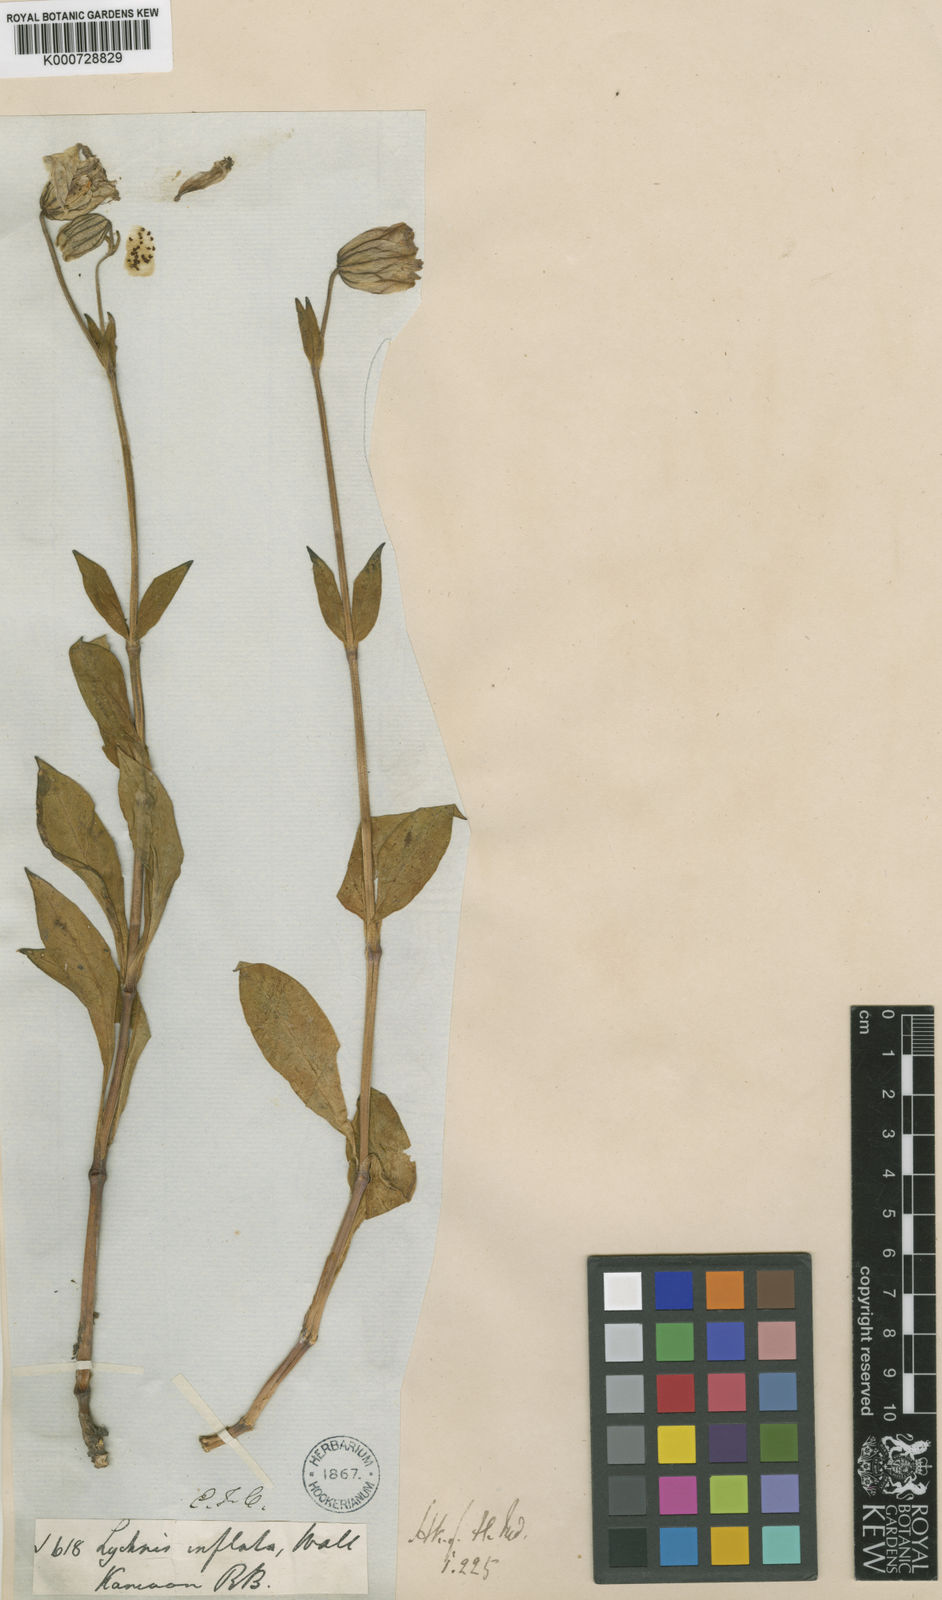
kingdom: Plantae
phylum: Tracheophyta
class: Magnoliopsida
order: Caryophyllales
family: Caryophyllaceae
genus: Silene
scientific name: Silene
